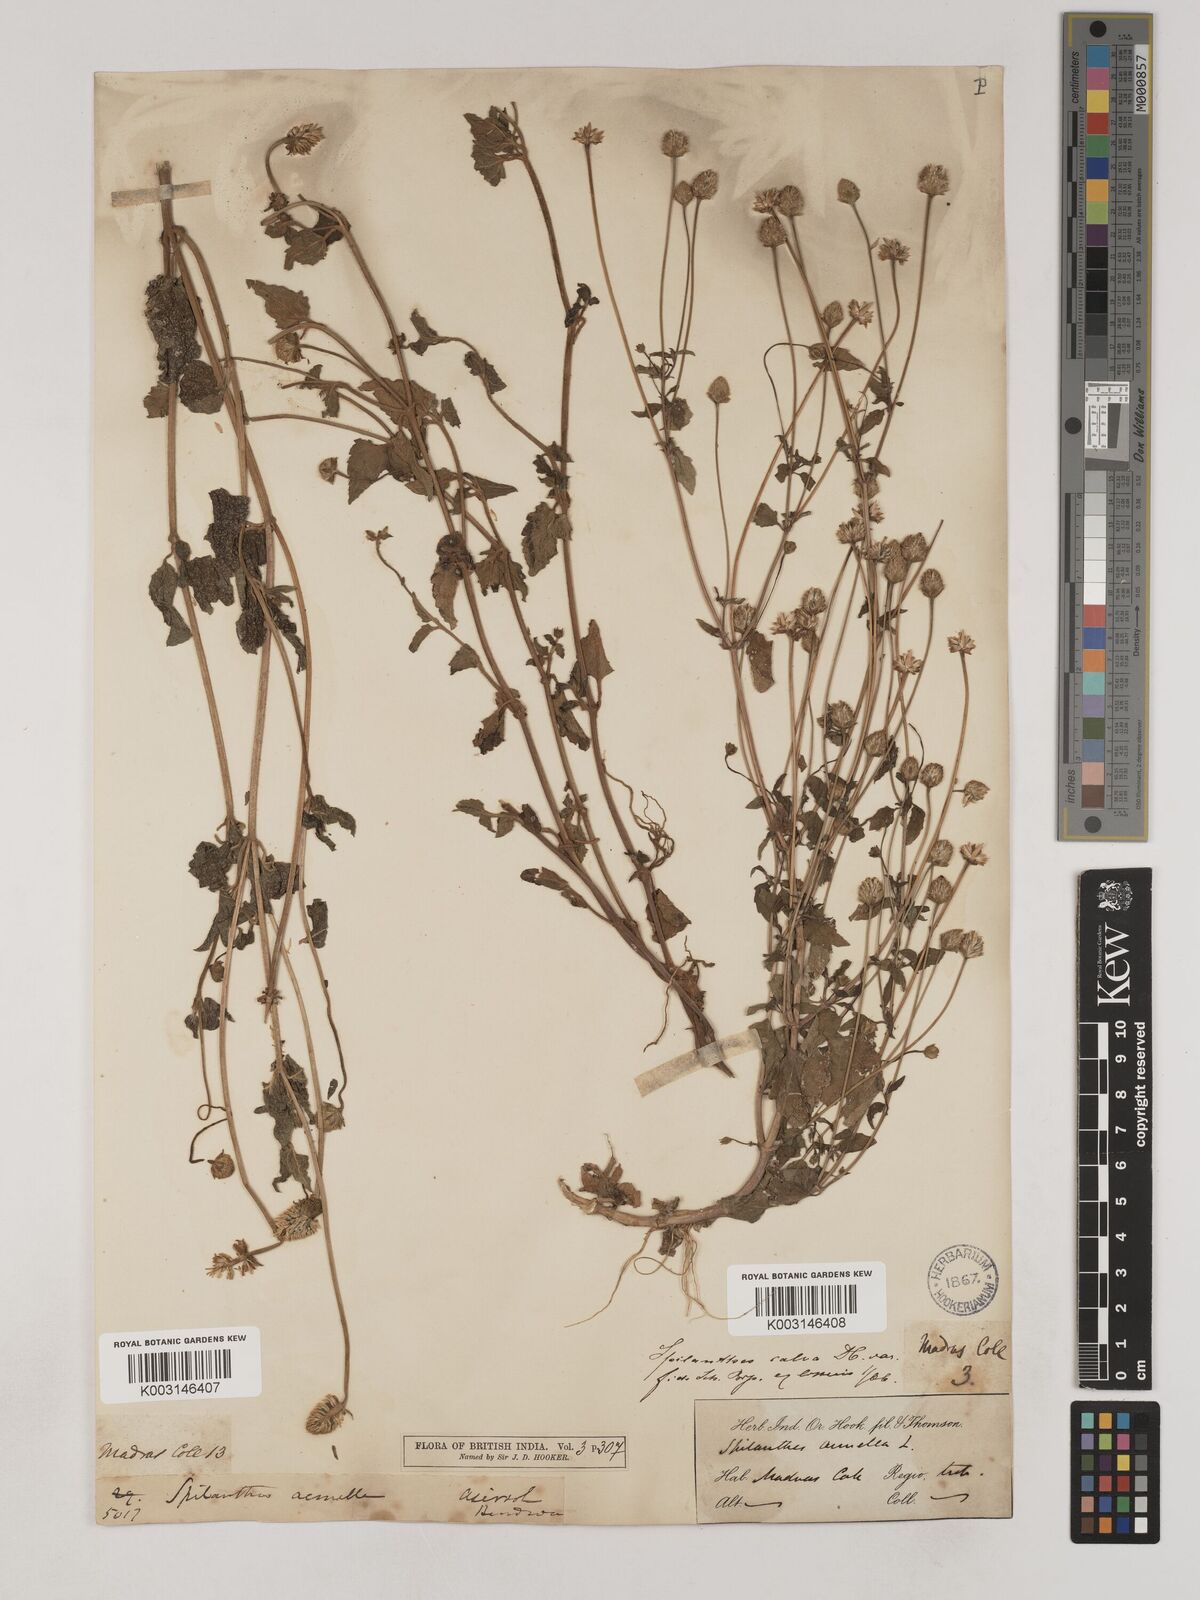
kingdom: Plantae
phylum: Tracheophyta
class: Magnoliopsida
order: Asterales
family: Asteraceae
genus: Acmella
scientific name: Acmella calva
